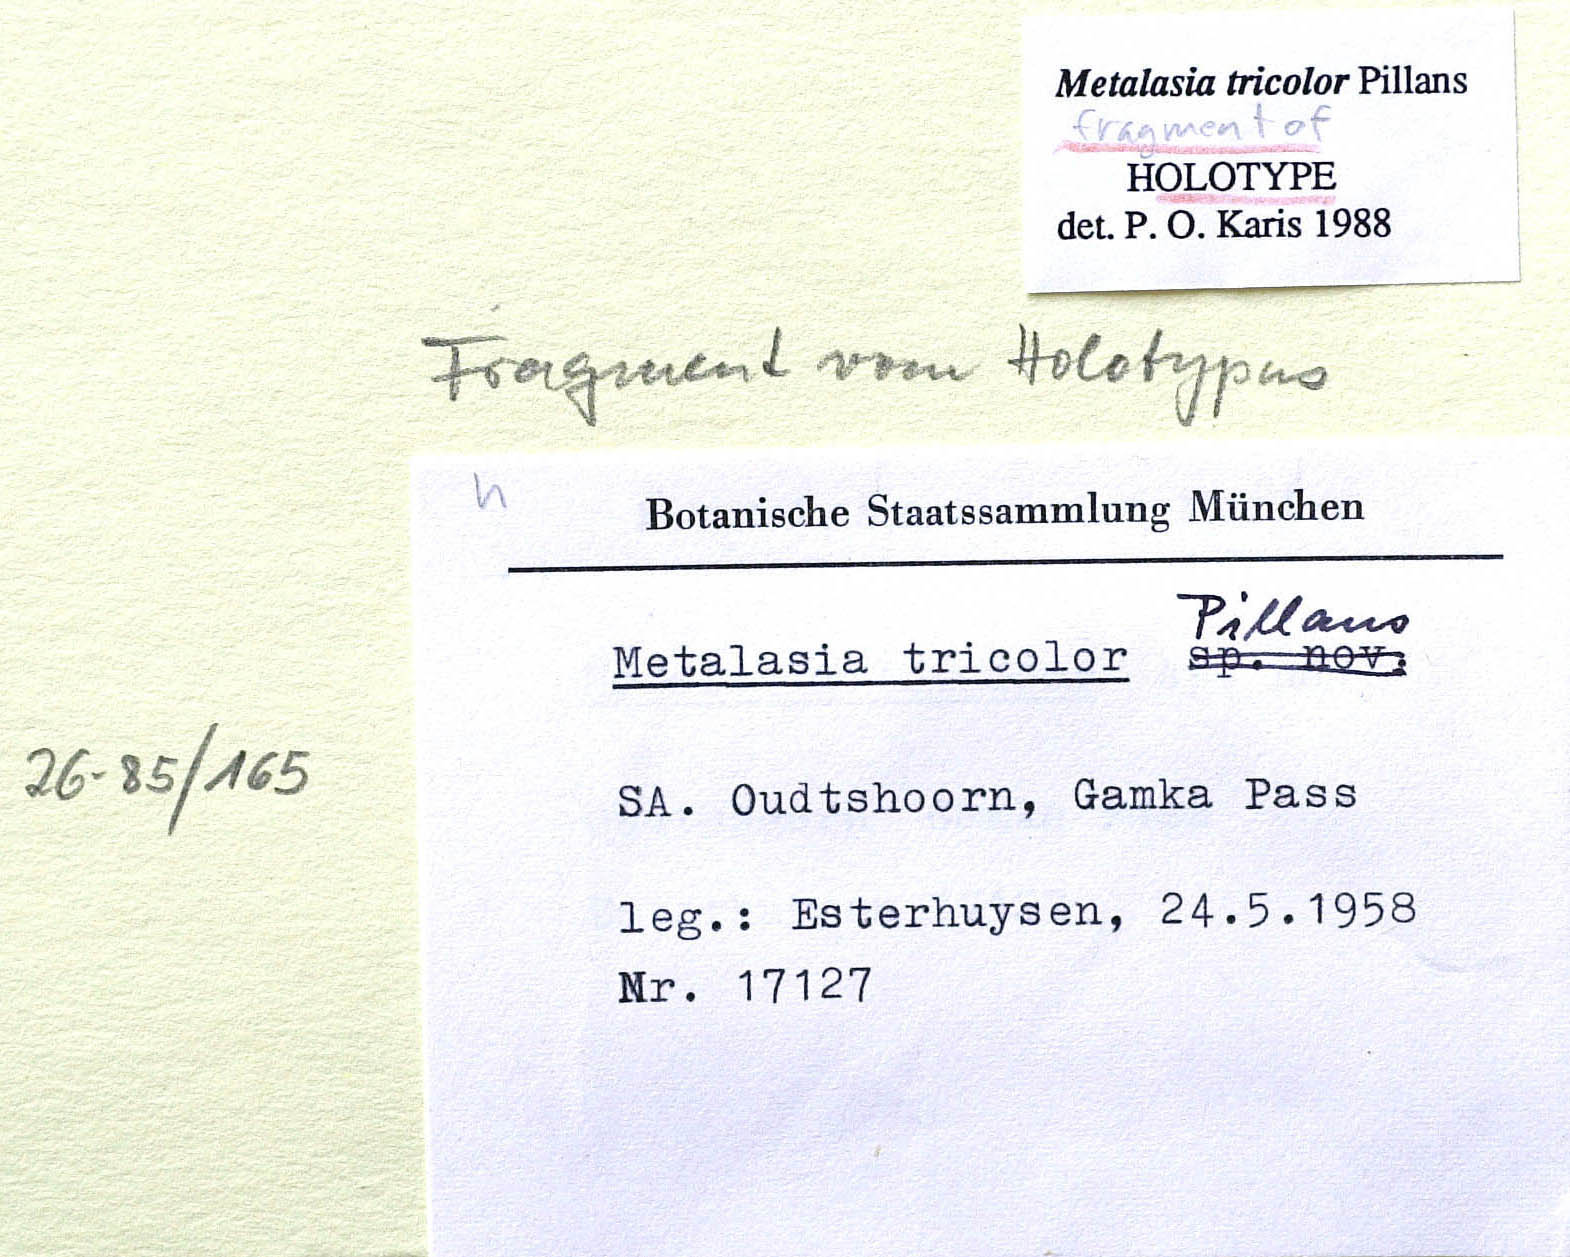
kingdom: Plantae
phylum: Tracheophyta
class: Magnoliopsida
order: Asterales
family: Asteraceae
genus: Metalasia
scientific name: Metalasia tricolor
